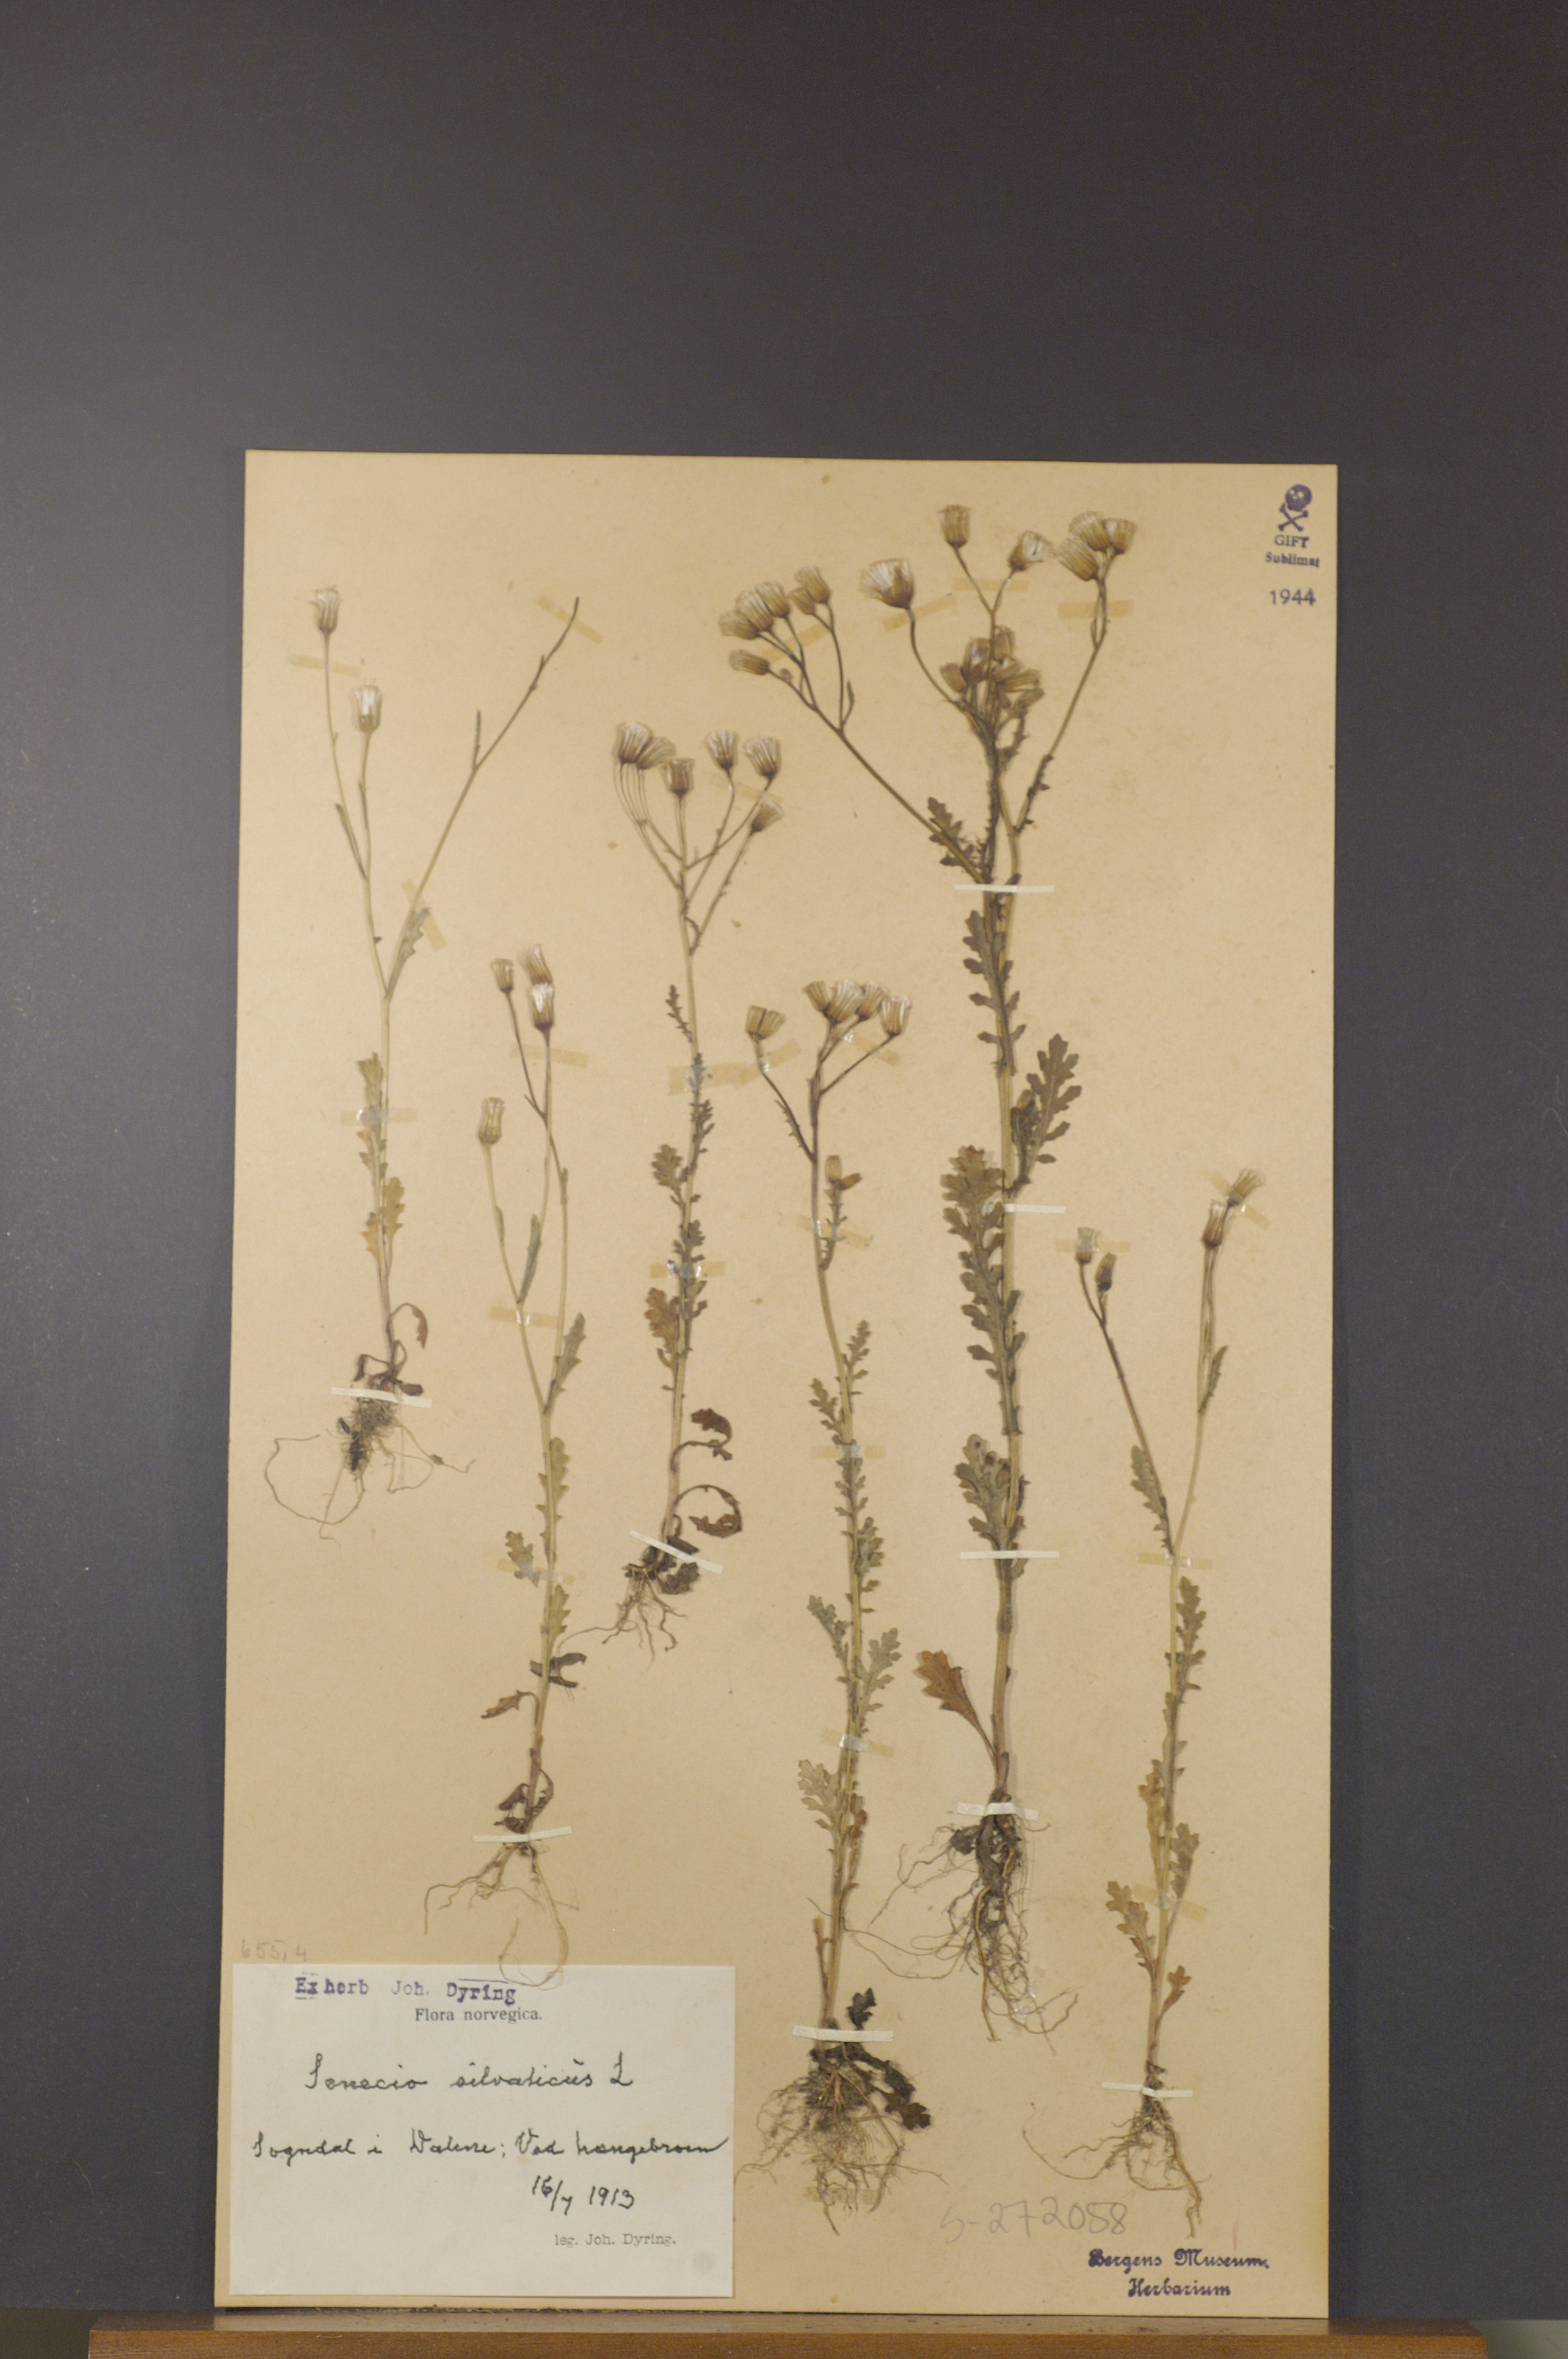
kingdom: Plantae
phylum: Tracheophyta
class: Magnoliopsida
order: Asterales
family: Asteraceae
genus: Senecio
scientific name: Senecio sylvaticus
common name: Woodland ragwort
